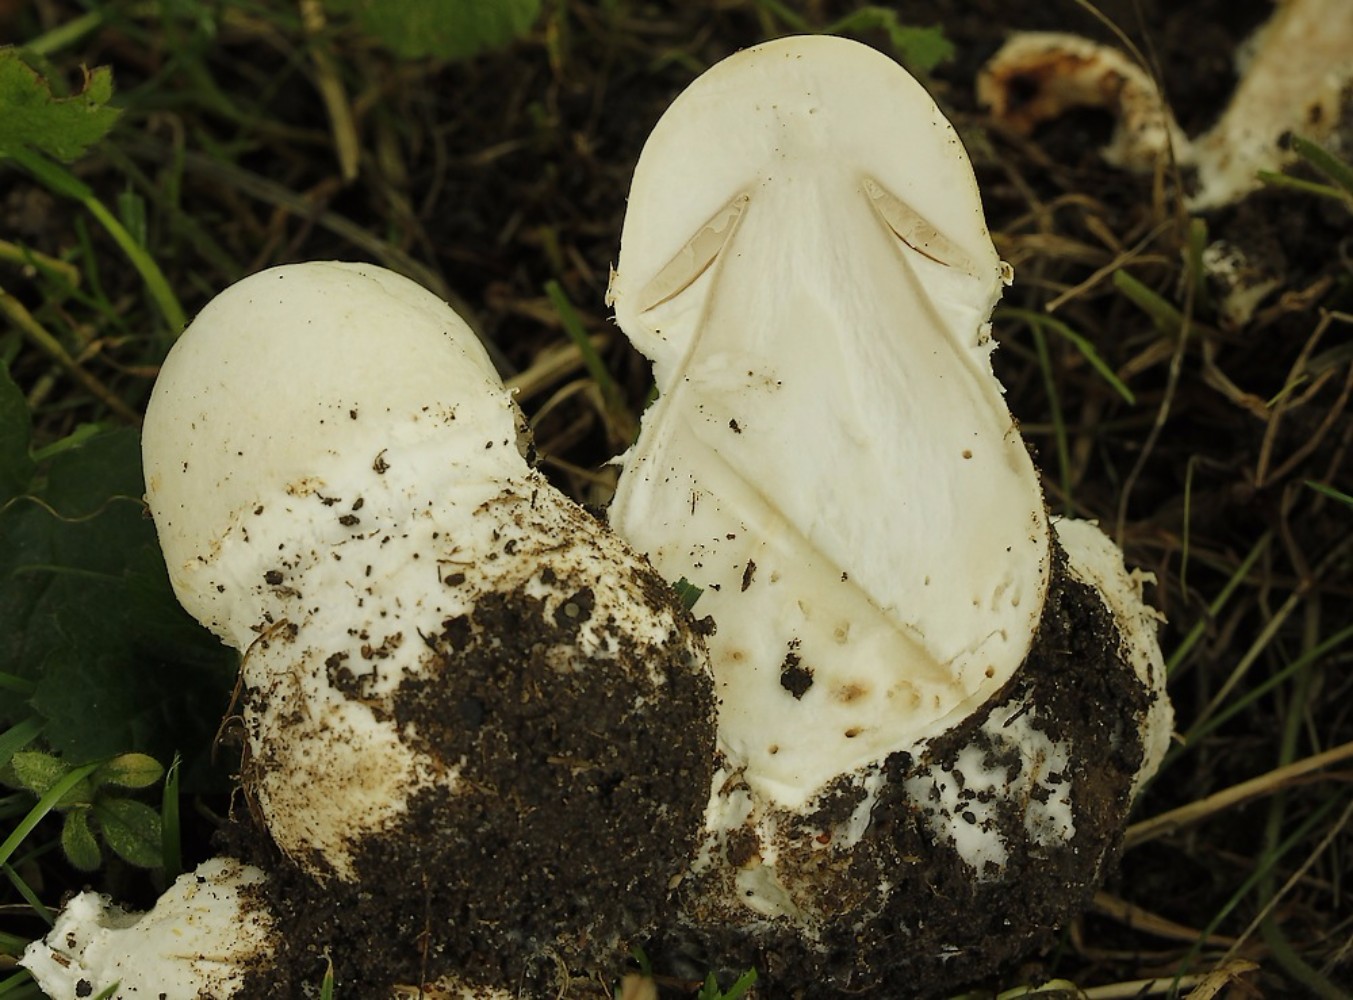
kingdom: Fungi
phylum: Basidiomycota
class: Agaricomycetes
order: Agaricales
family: Agaricaceae
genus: Agaricus
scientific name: Agaricus arvensis
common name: ager-champignon
